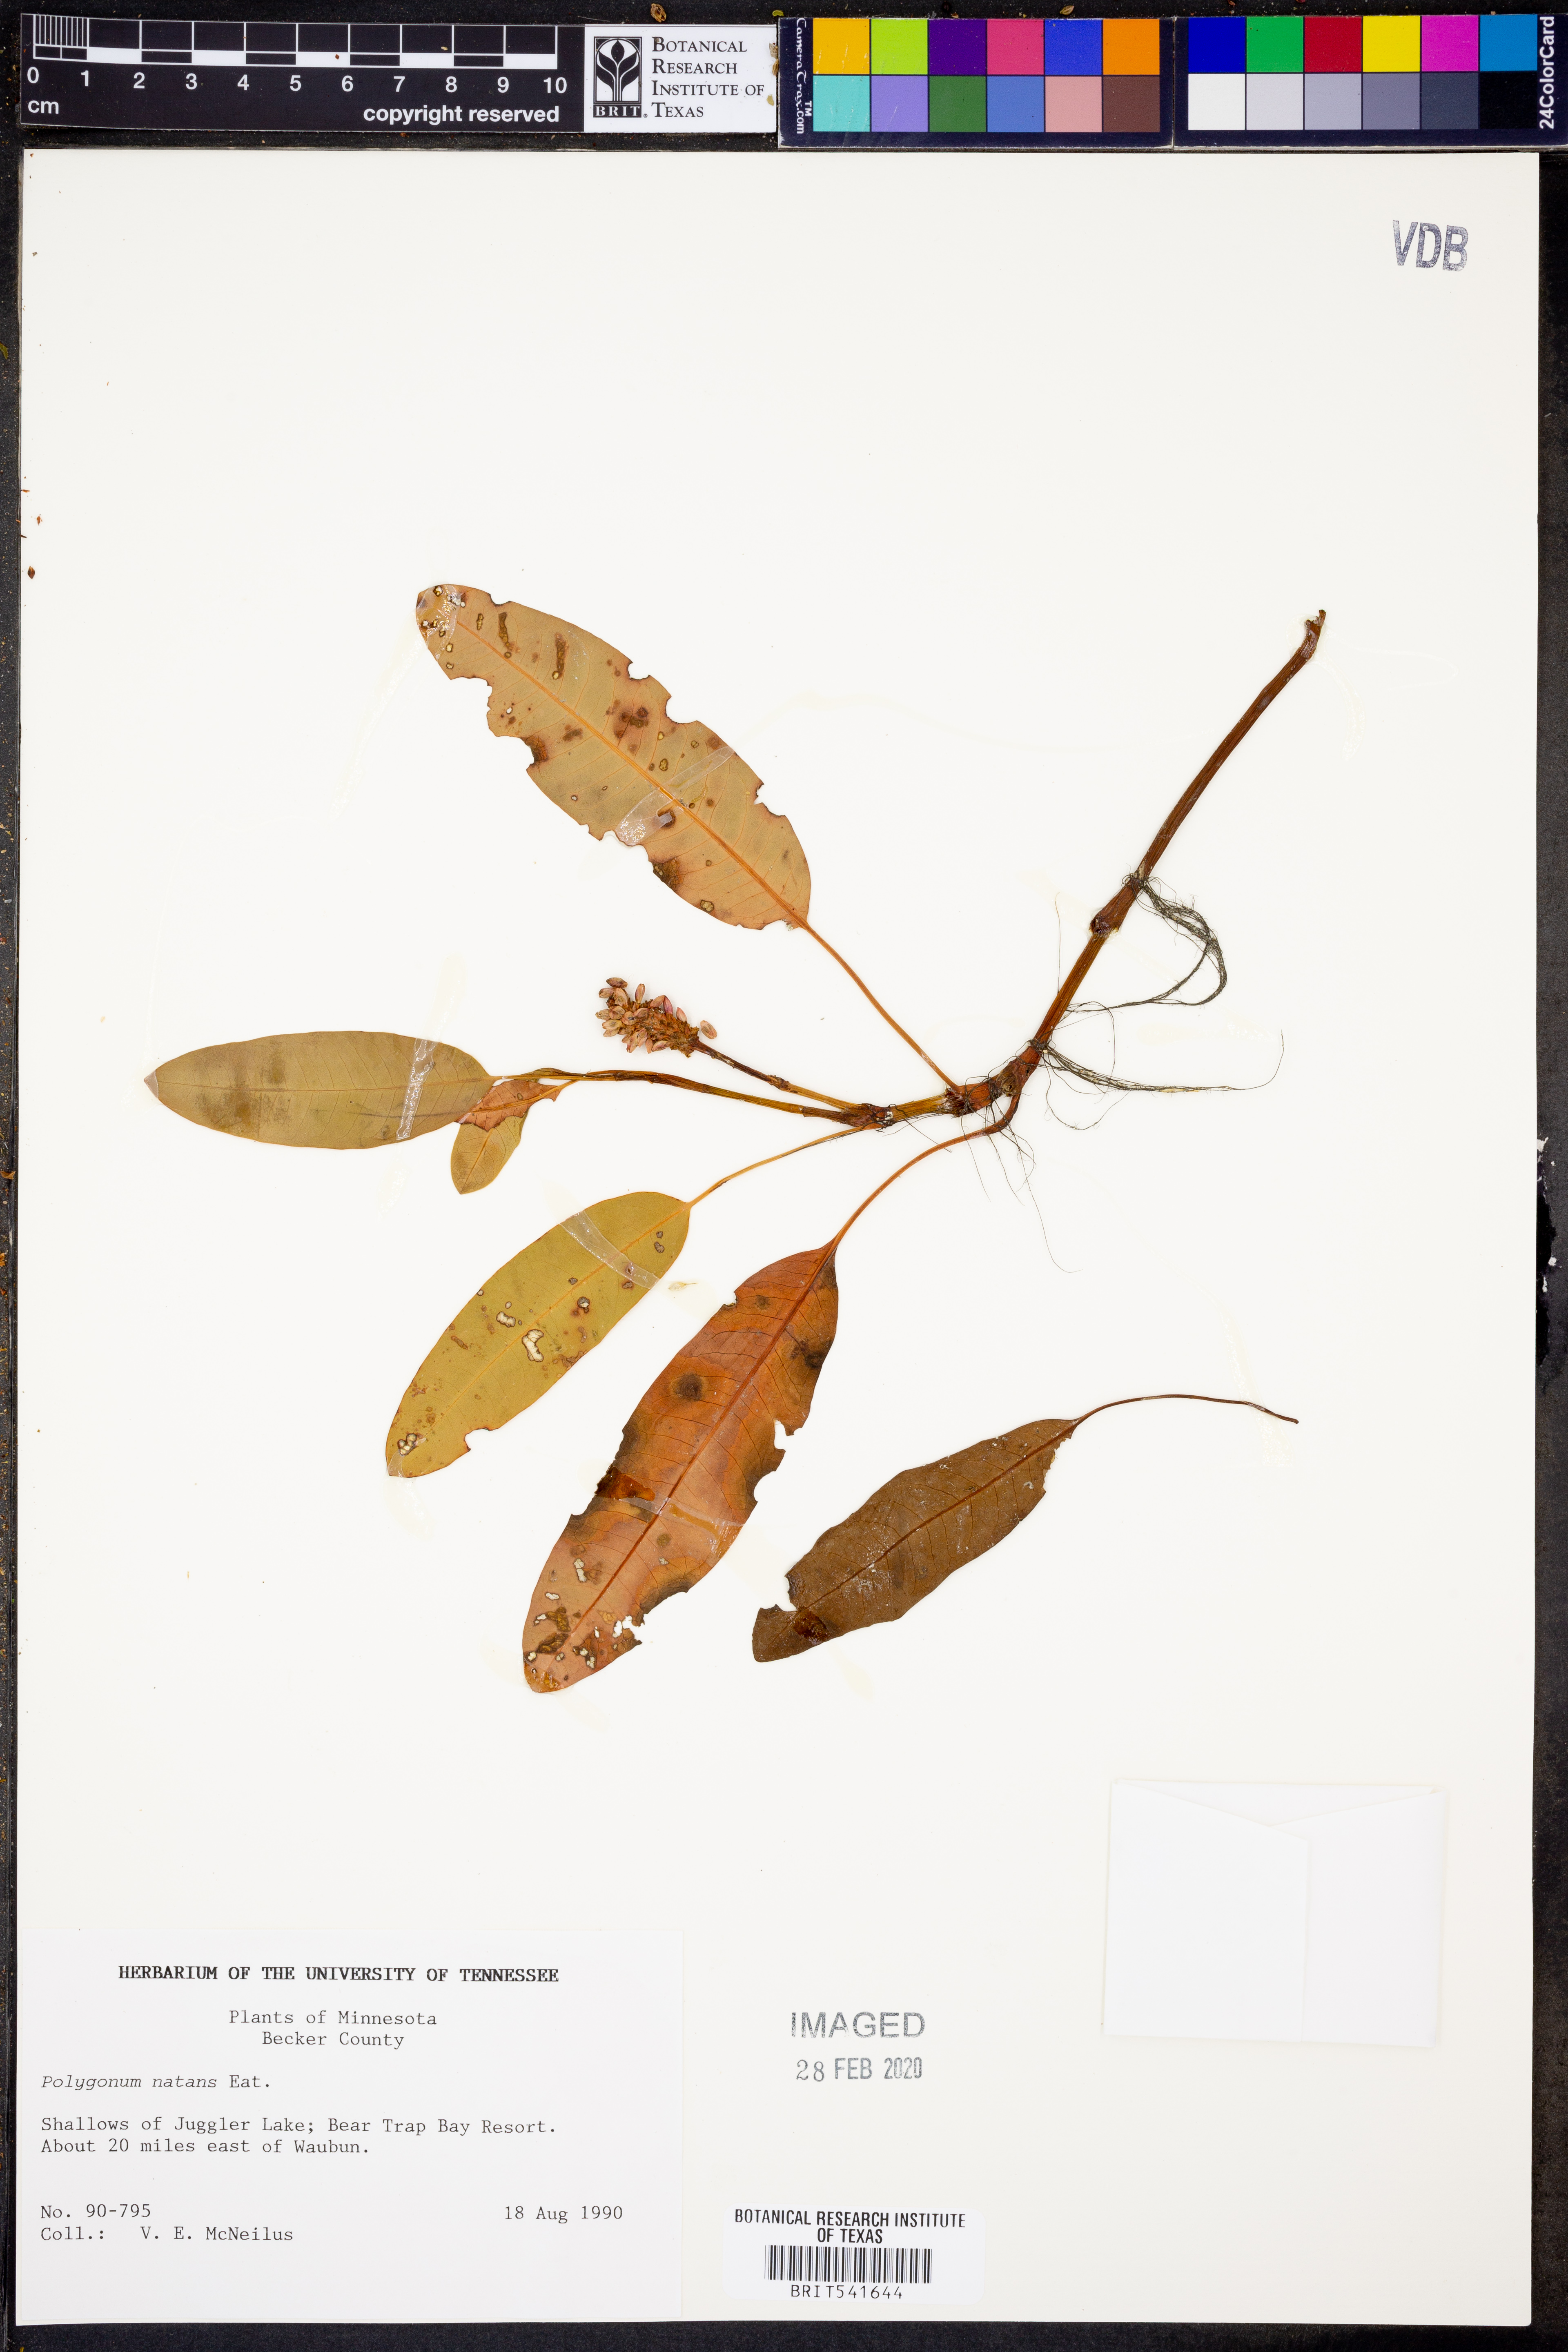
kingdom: Plantae
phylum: Tracheophyta
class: Magnoliopsida
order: Caryophyllales
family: Polygonaceae
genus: Persicaria
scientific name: Persicaria amphibia
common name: Amphibious bistort
